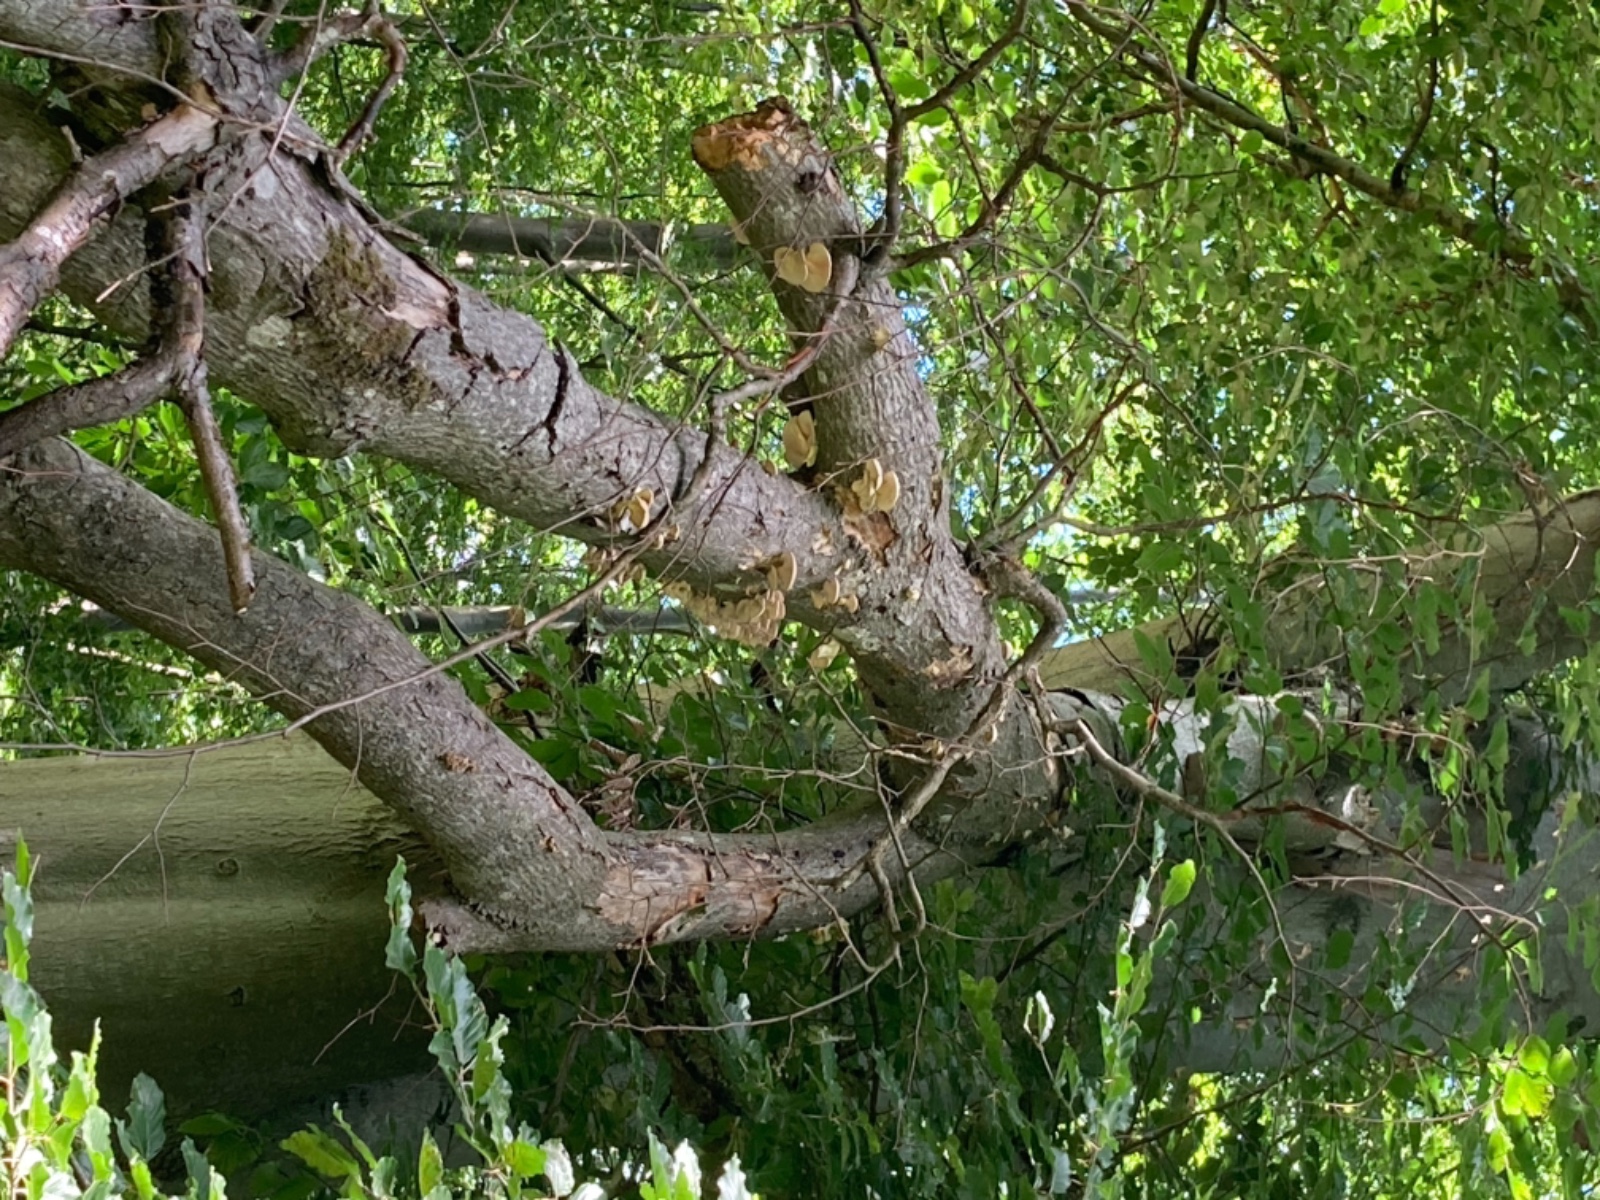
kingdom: Fungi
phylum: Basidiomycota
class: Agaricomycetes
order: Agaricales
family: Pleurotaceae
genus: Pleurotus
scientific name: Pleurotus pulmonarius
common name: sommer-østershat
